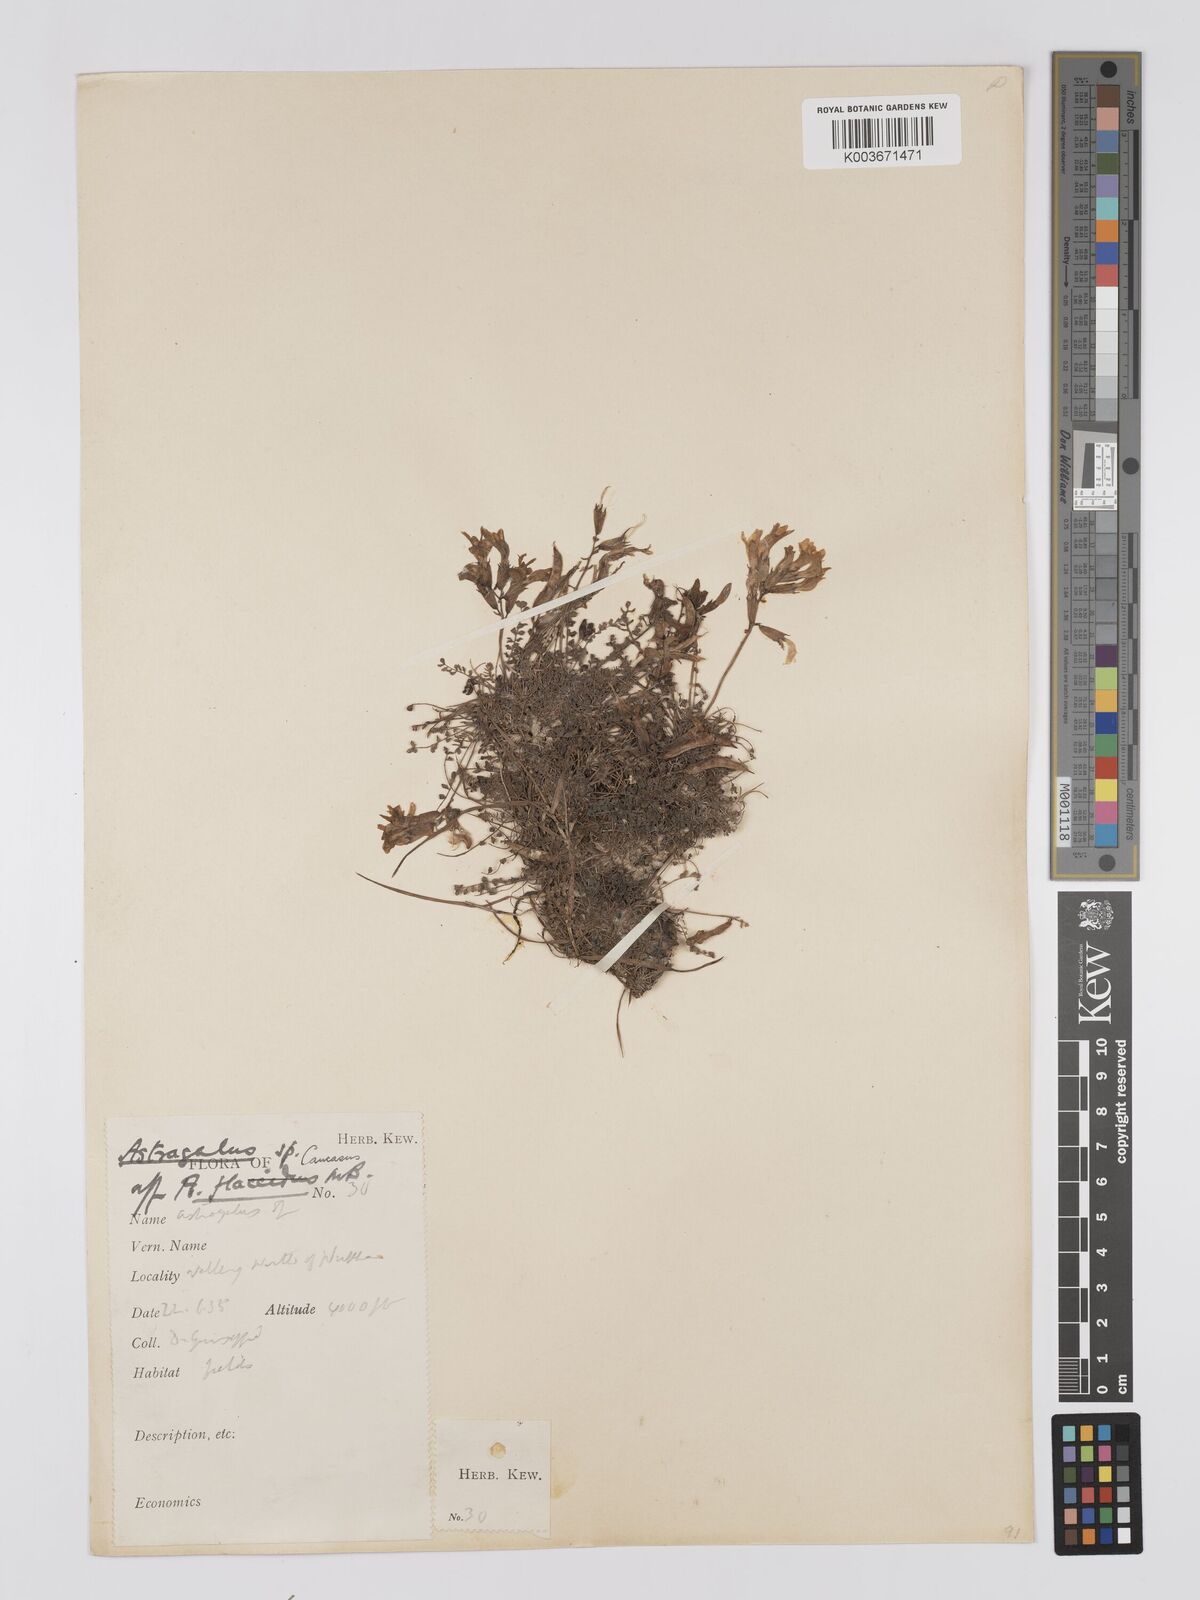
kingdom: Plantae
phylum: Tracheophyta
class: Magnoliopsida
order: Fabales
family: Fabaceae
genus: Astragalus
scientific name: Astragalus humifusus
